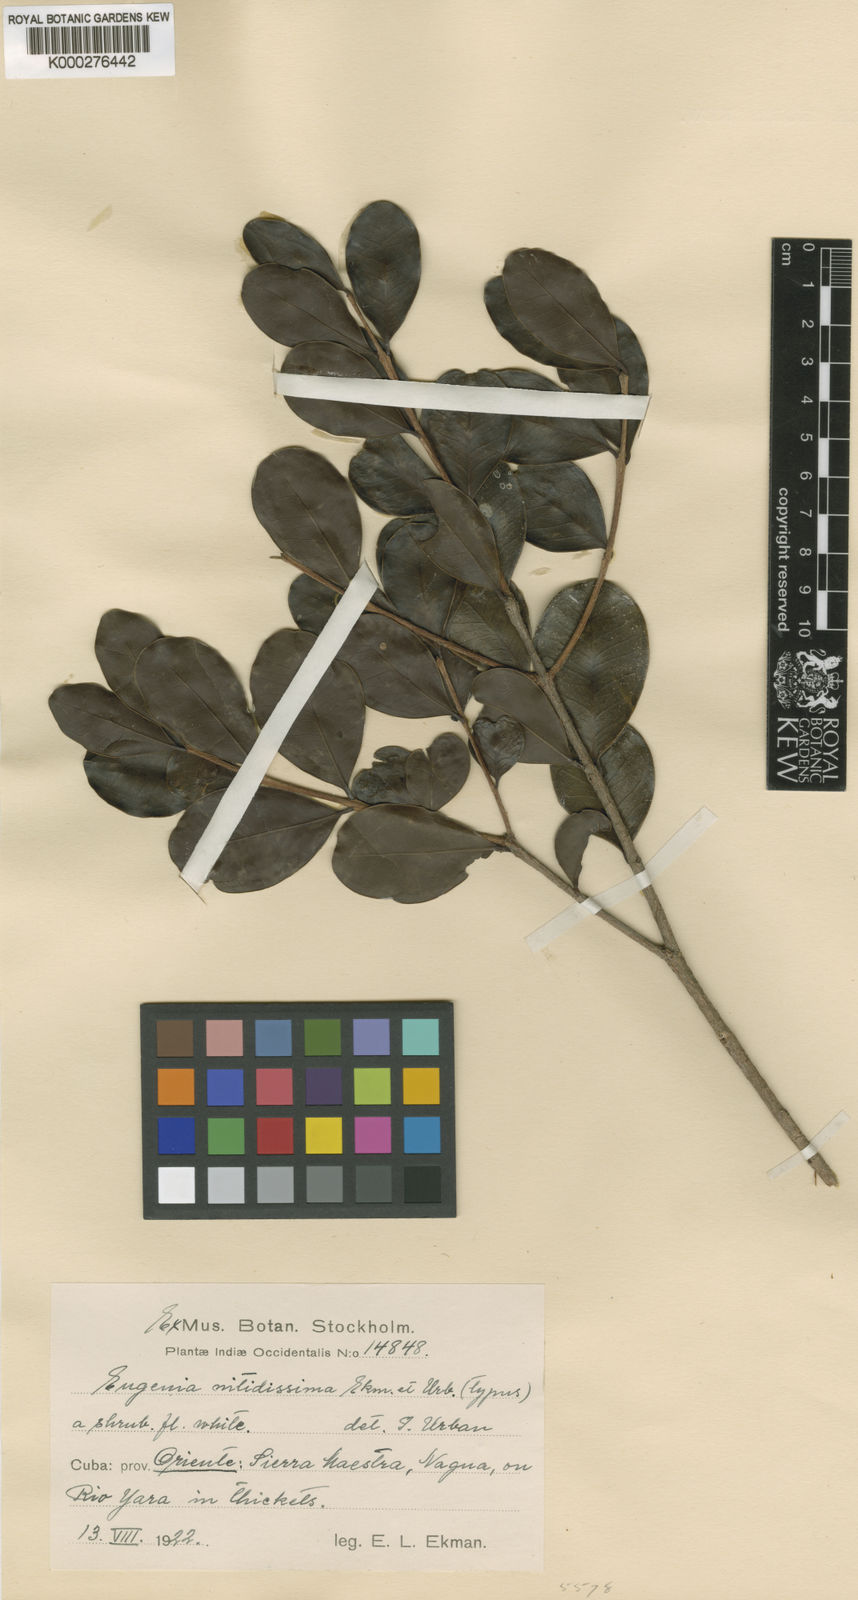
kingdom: Plantae
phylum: Tracheophyta
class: Magnoliopsida
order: Myrtales
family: Myrtaceae
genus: Eugenia
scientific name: Eugenia
